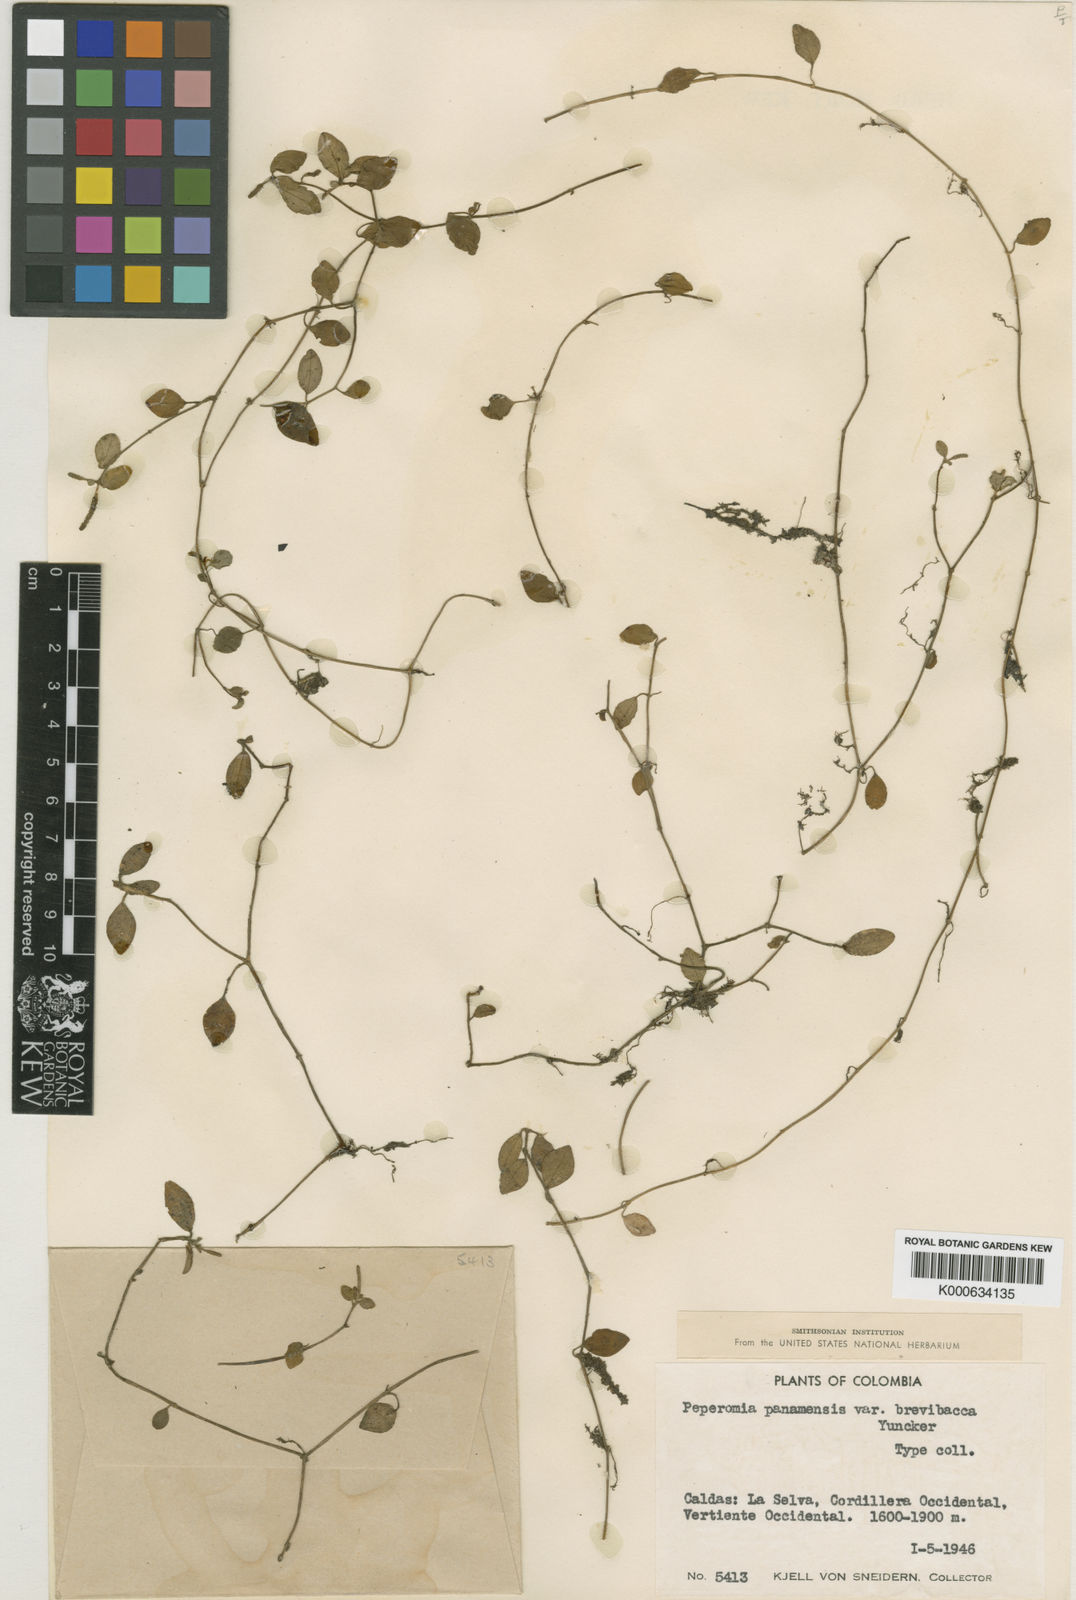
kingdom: Plantae
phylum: Tracheophyta
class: Magnoliopsida
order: Piperales
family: Piperaceae
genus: Peperomia
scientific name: Peperomia silvivaga
